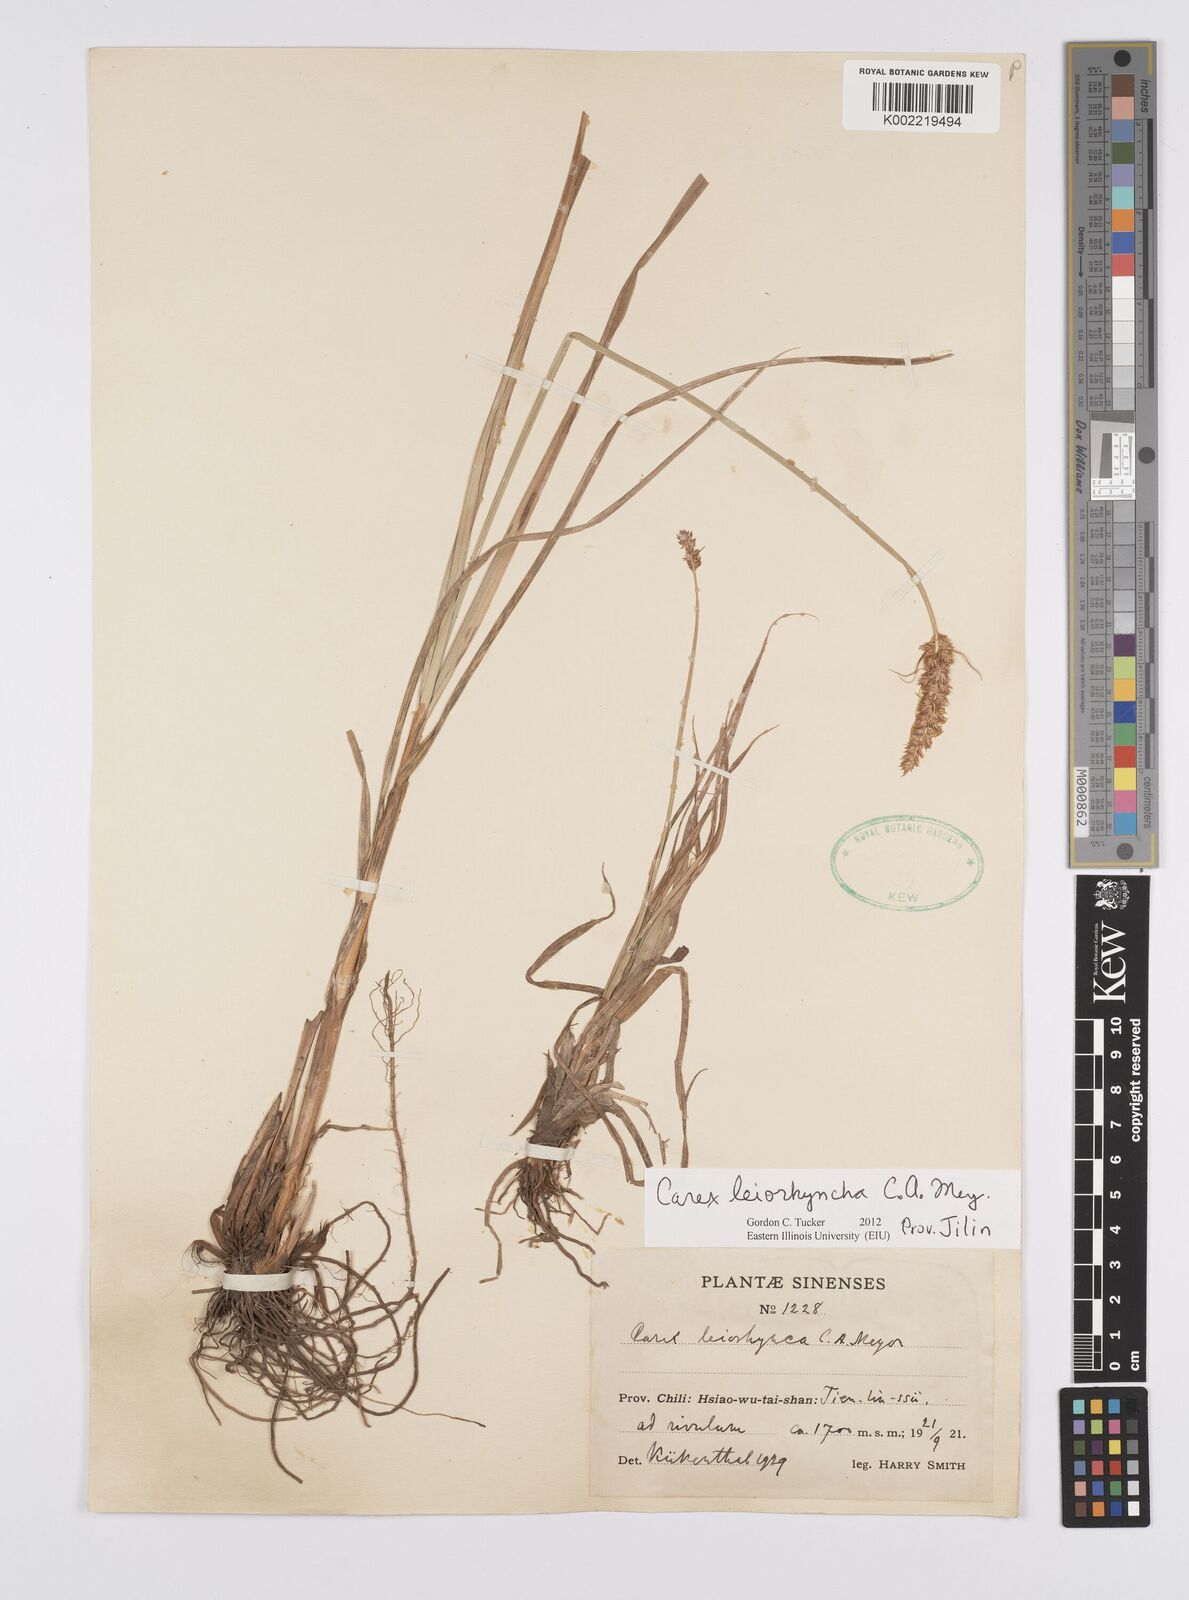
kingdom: Plantae
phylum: Tracheophyta
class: Liliopsida
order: Poales
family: Cyperaceae
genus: Carex
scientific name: Carex leiorhyncha
